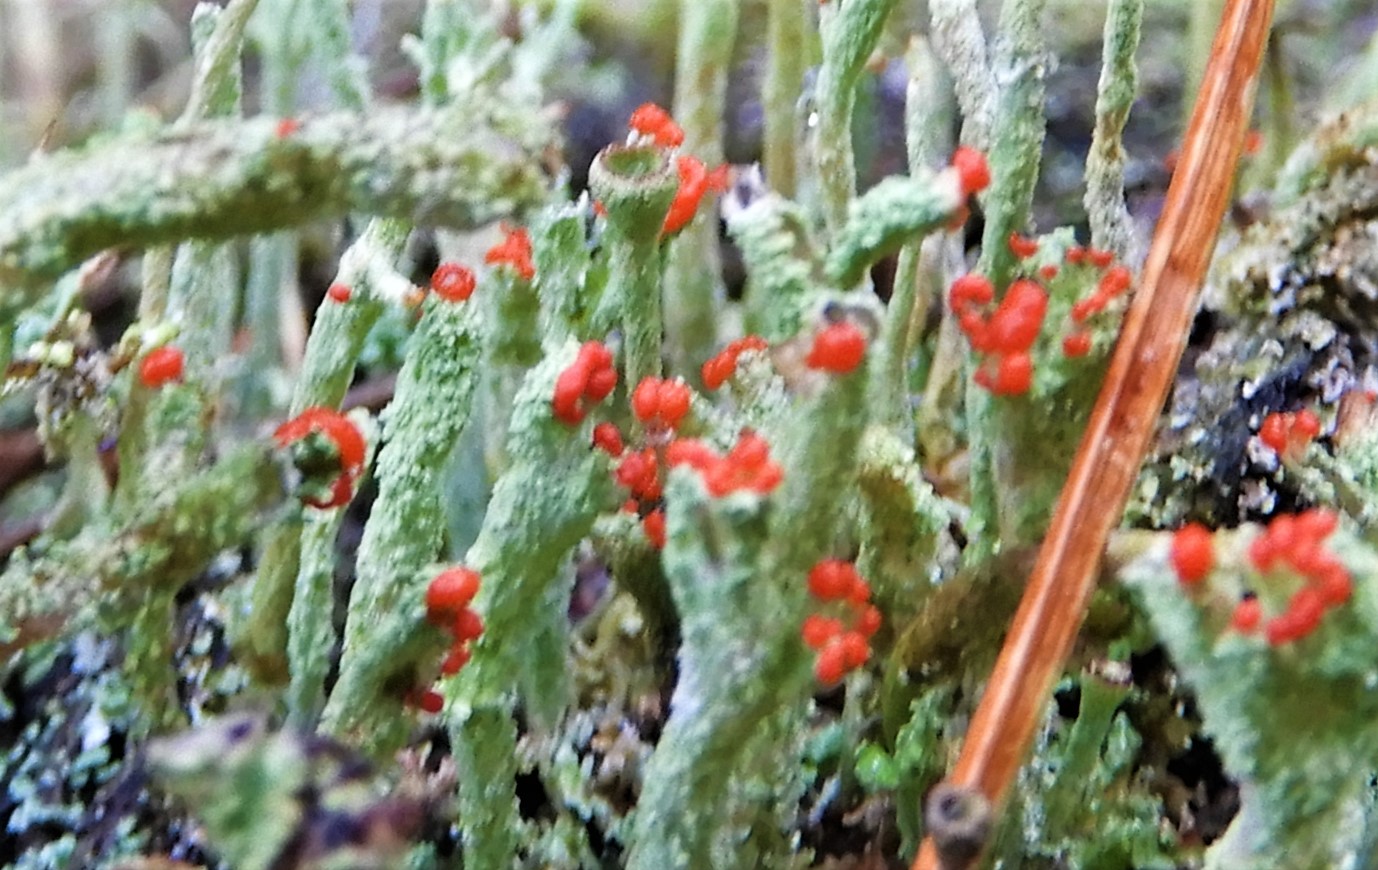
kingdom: Fungi
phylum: Ascomycota
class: Lecanoromycetes
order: Lecanorales
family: Cladoniaceae
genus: Cladonia
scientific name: Cladonia floerkeana
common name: lakrød bægerlav
